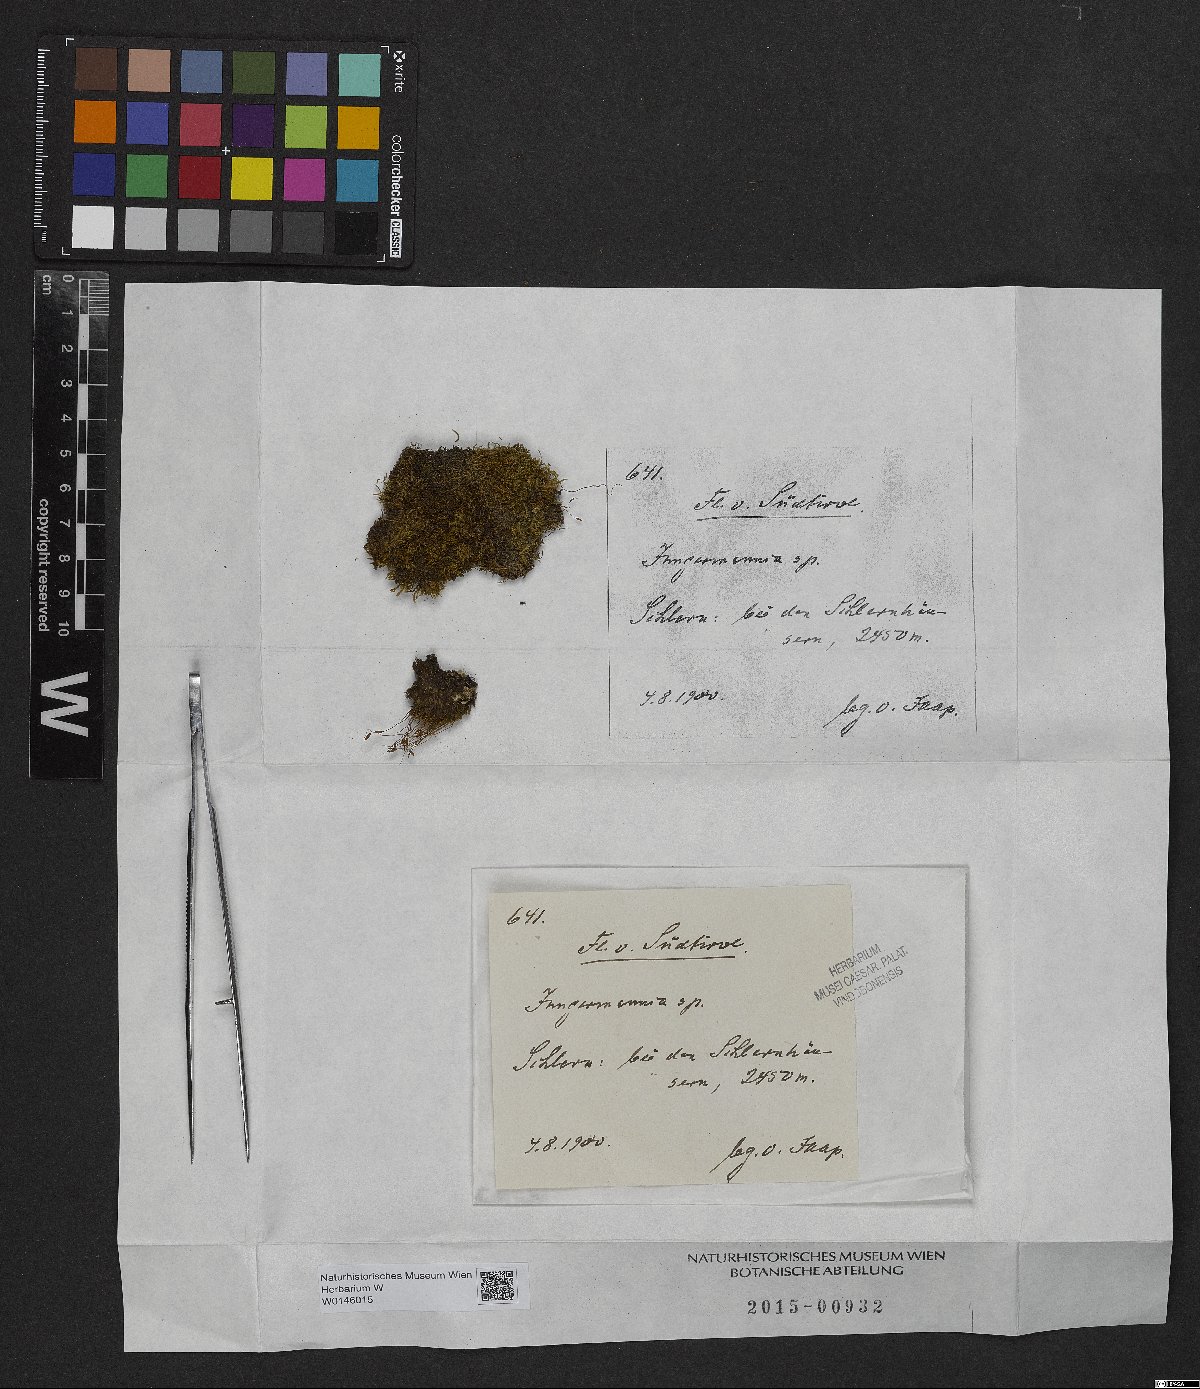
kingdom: Plantae
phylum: Marchantiophyta
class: Jungermanniopsida
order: Jungermanniales
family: Jungermanniaceae
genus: Jungermannia
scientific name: Jungermannia
